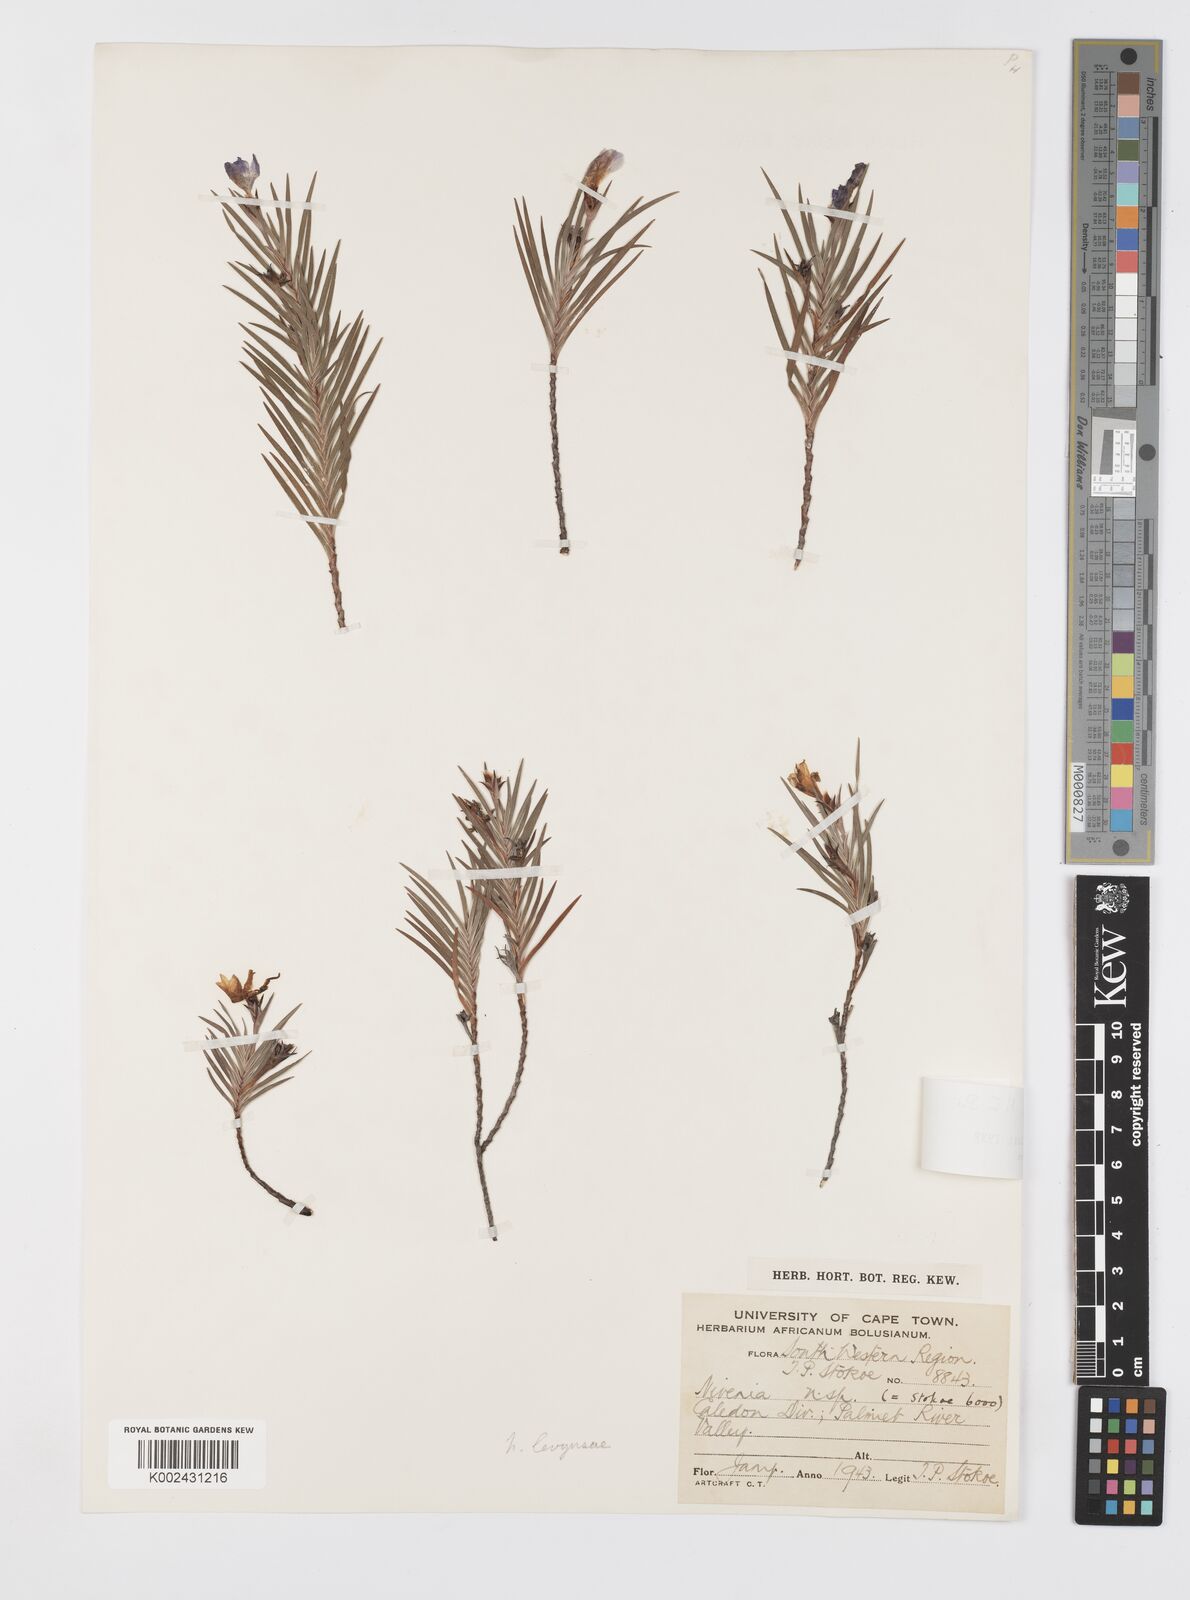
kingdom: Plantae
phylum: Tracheophyta
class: Liliopsida
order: Asparagales
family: Iridaceae
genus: Nivenia
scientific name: Nivenia levynsiae
